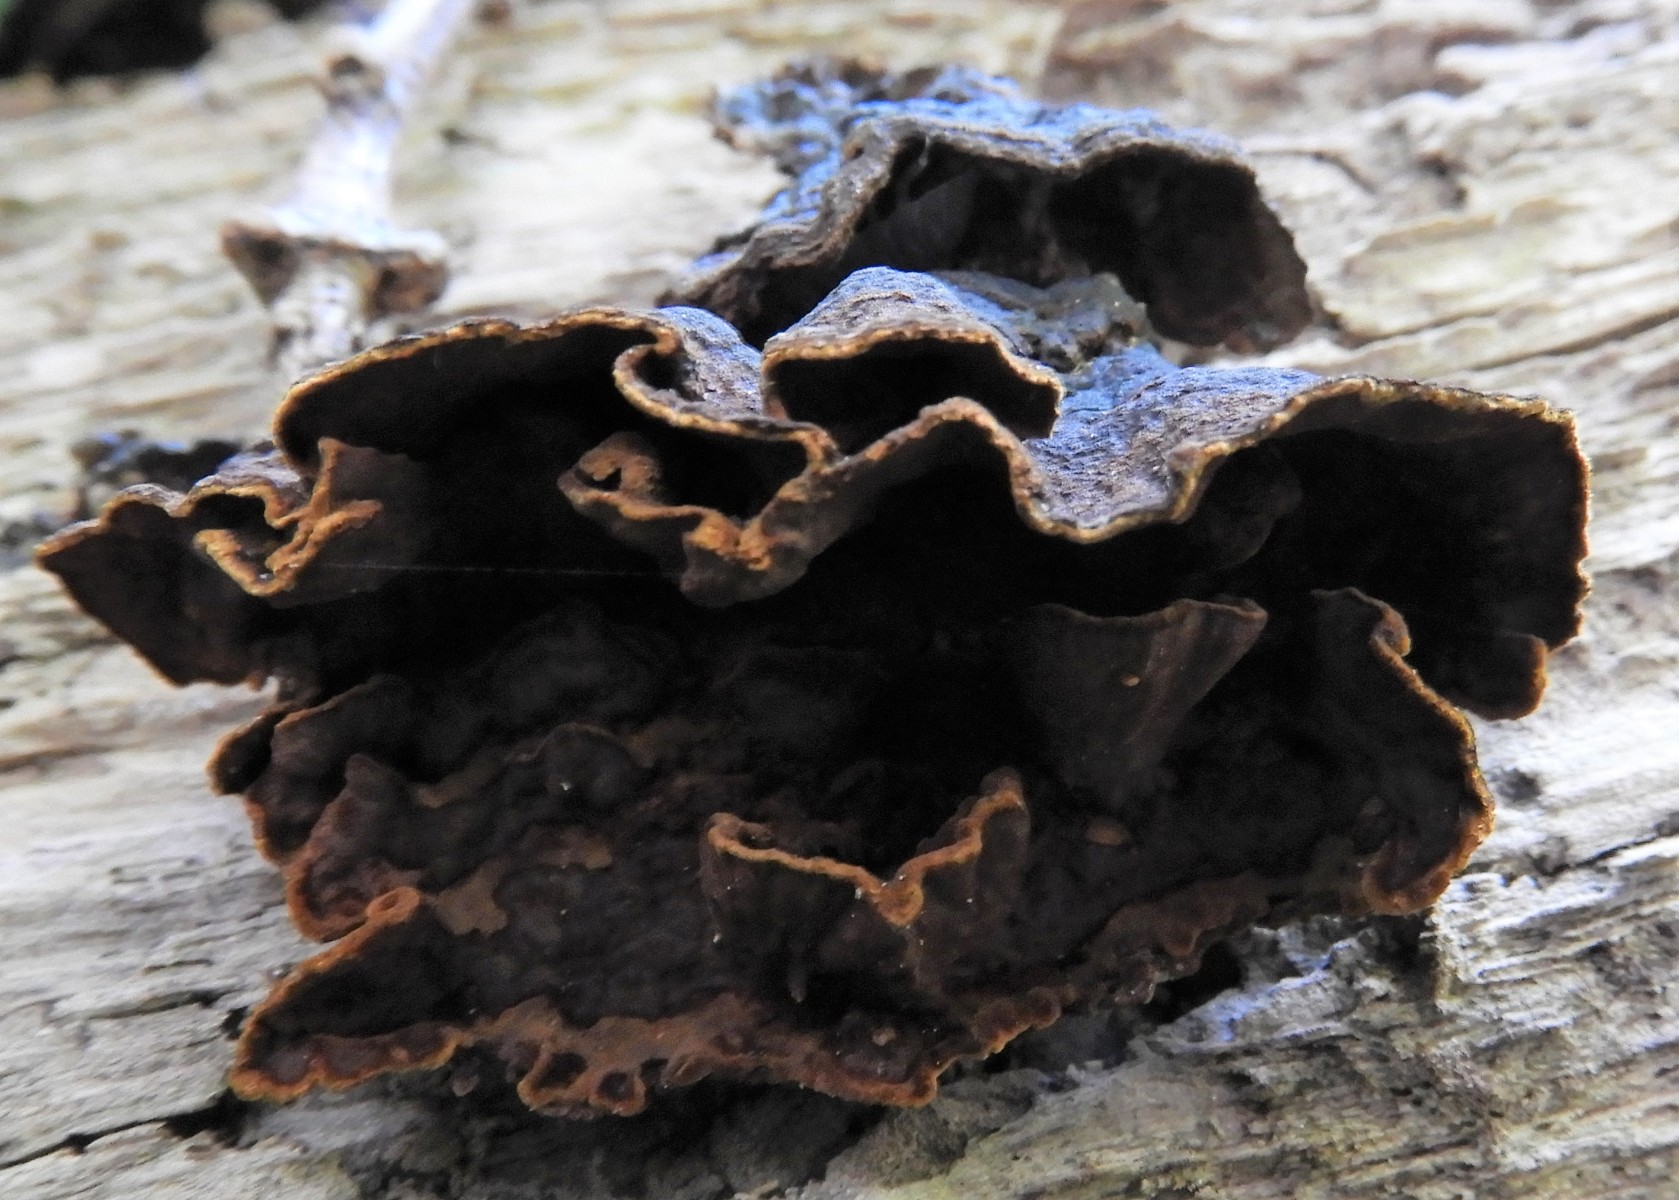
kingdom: Fungi
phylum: Basidiomycota
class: Agaricomycetes
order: Hymenochaetales
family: Hymenochaetaceae
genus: Hymenochaete
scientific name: Hymenochaete rubiginosa
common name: stiv ruslædersvamp
